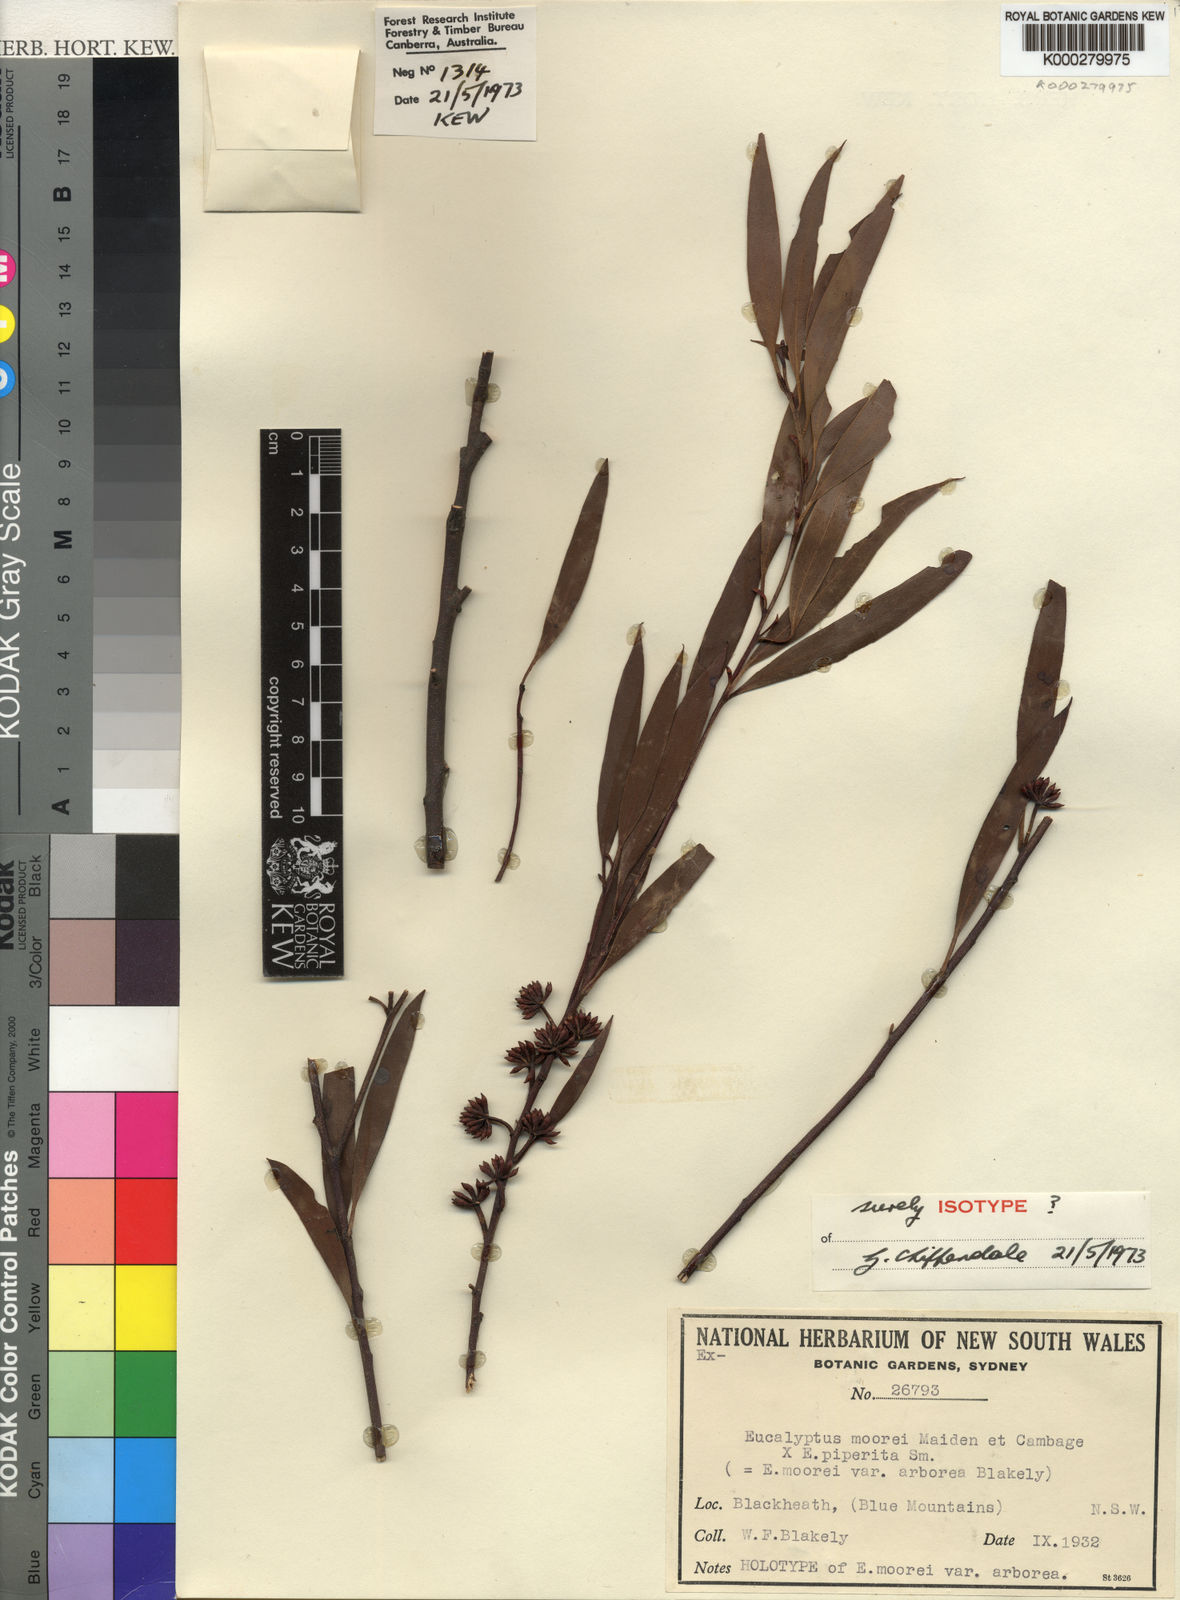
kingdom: Plantae
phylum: Tracheophyta
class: Magnoliopsida
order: Myrtales
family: Myrtaceae
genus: Eucalyptus
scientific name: Eucalyptus moorei
